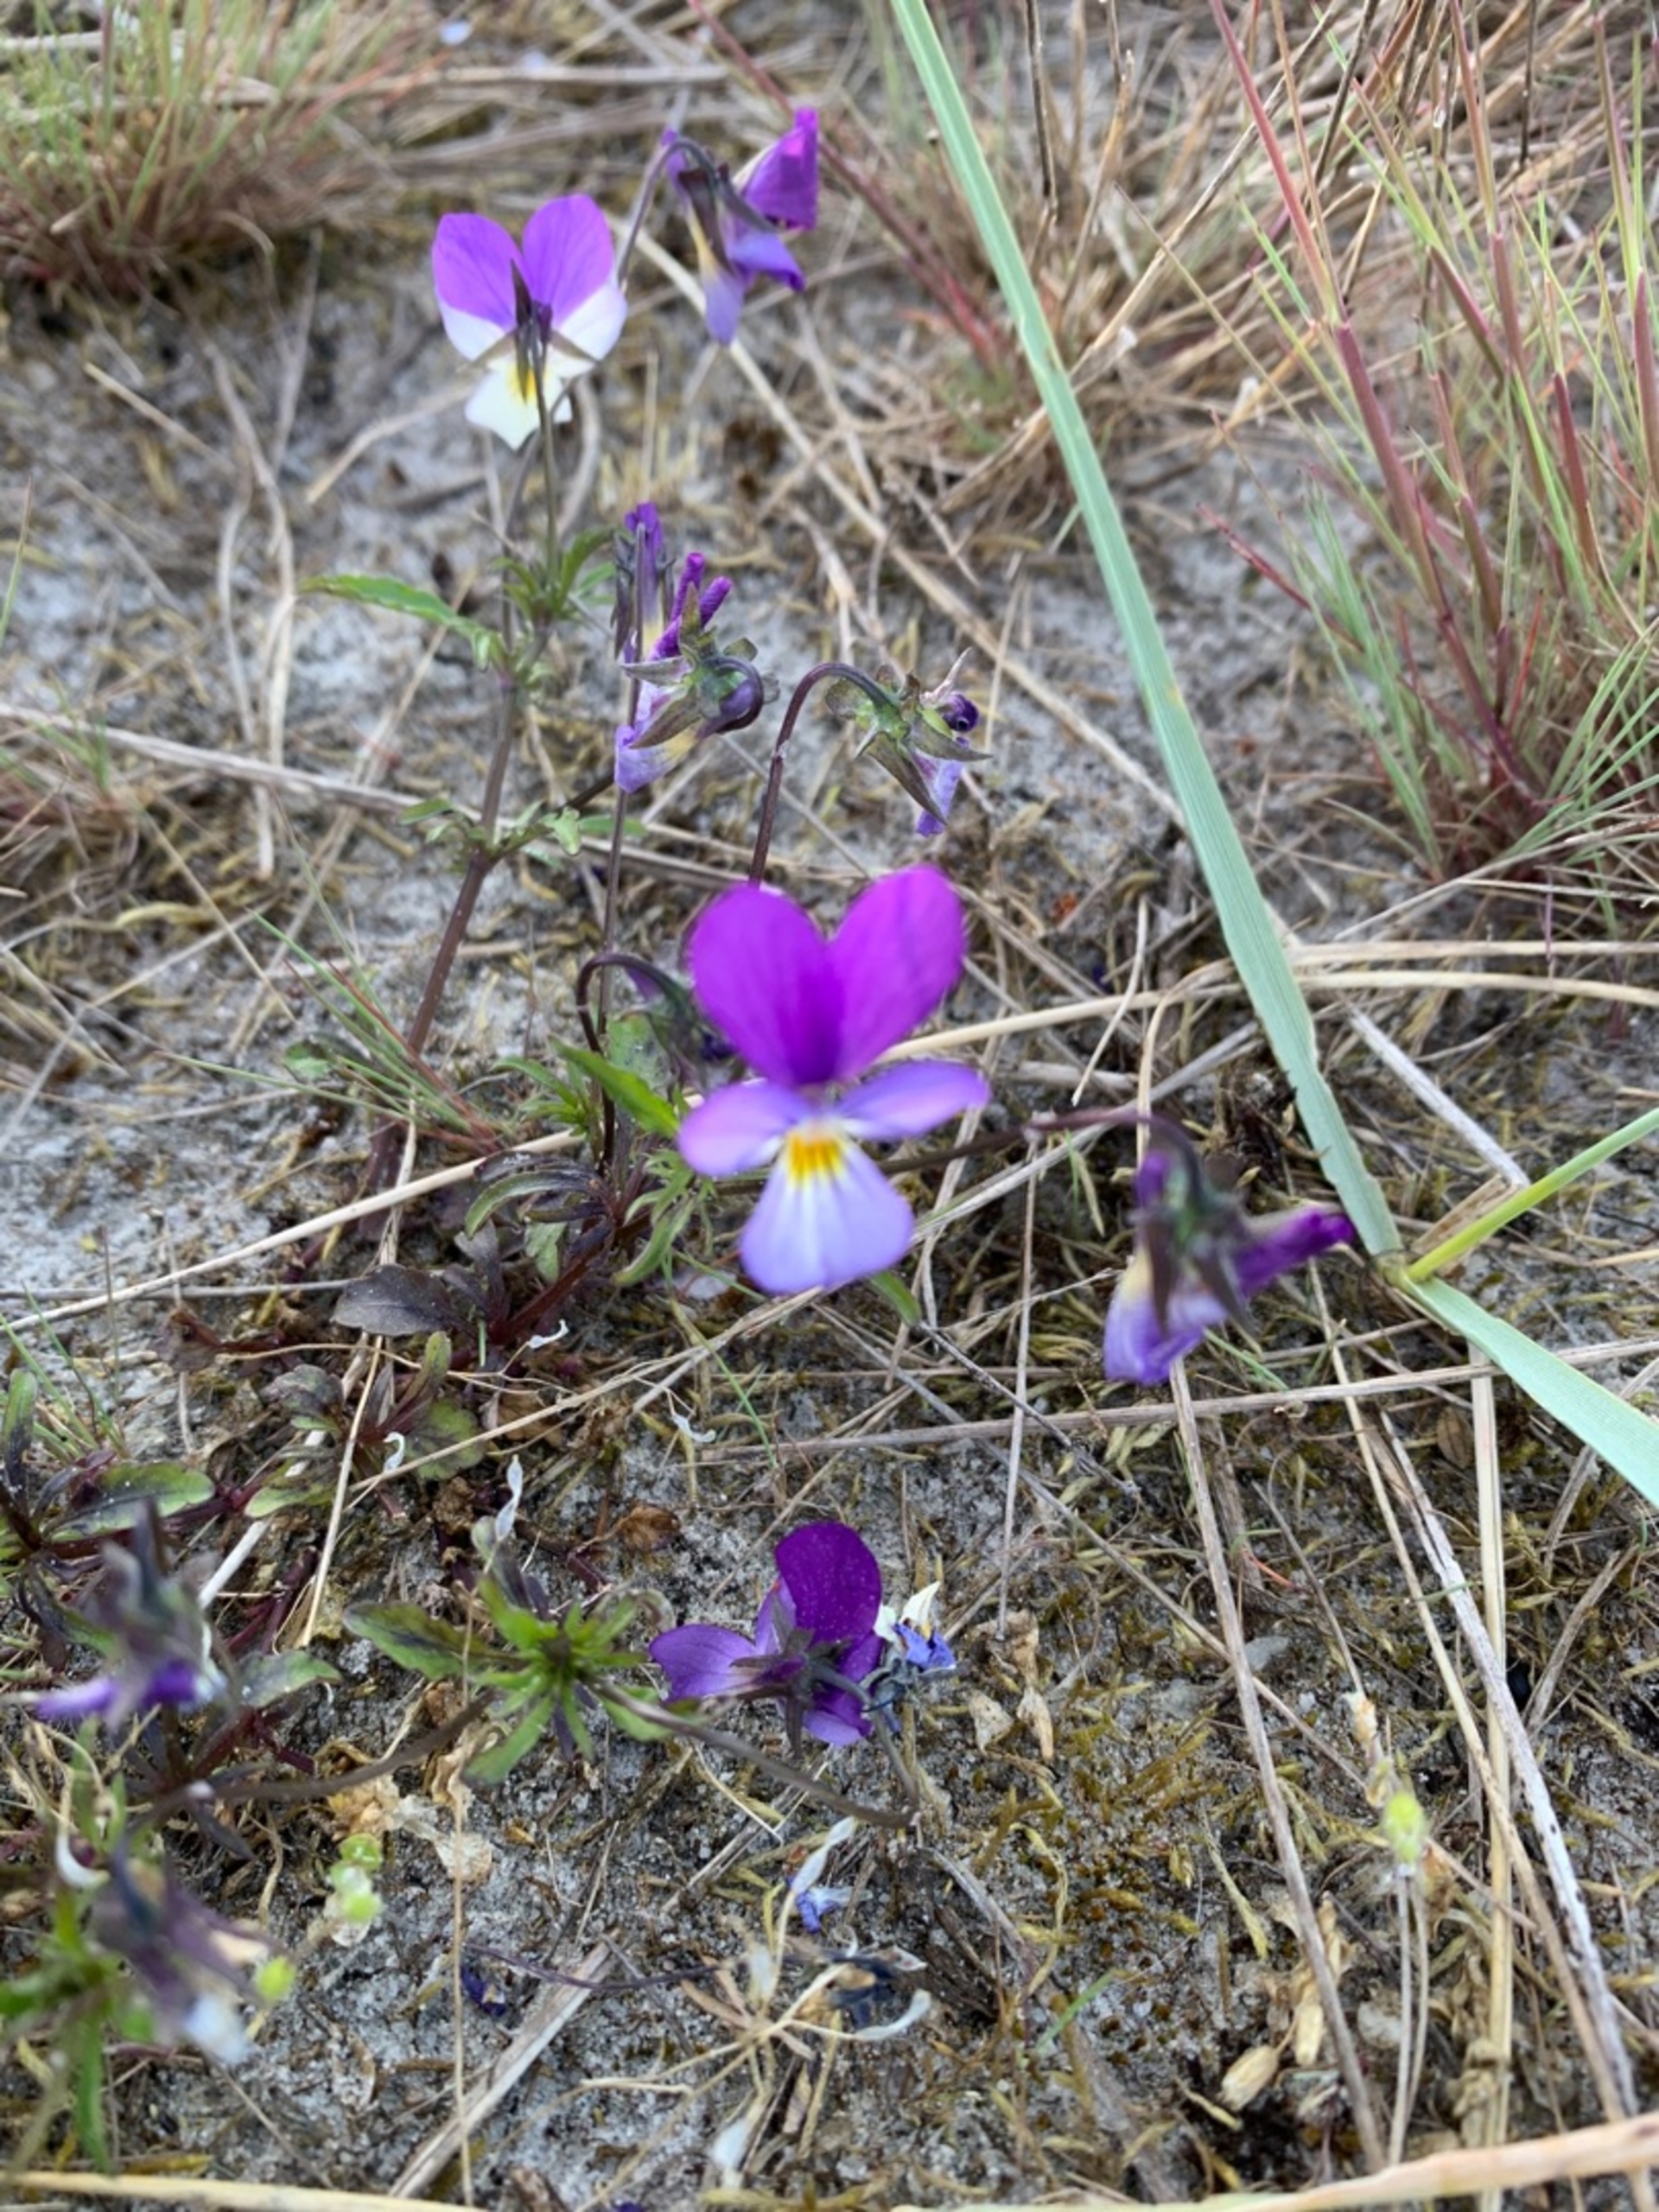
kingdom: Plantae
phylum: Tracheophyta
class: Magnoliopsida
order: Malpighiales
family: Violaceae
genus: Viola
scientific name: Viola tricolor
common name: Stedmoderblomst
